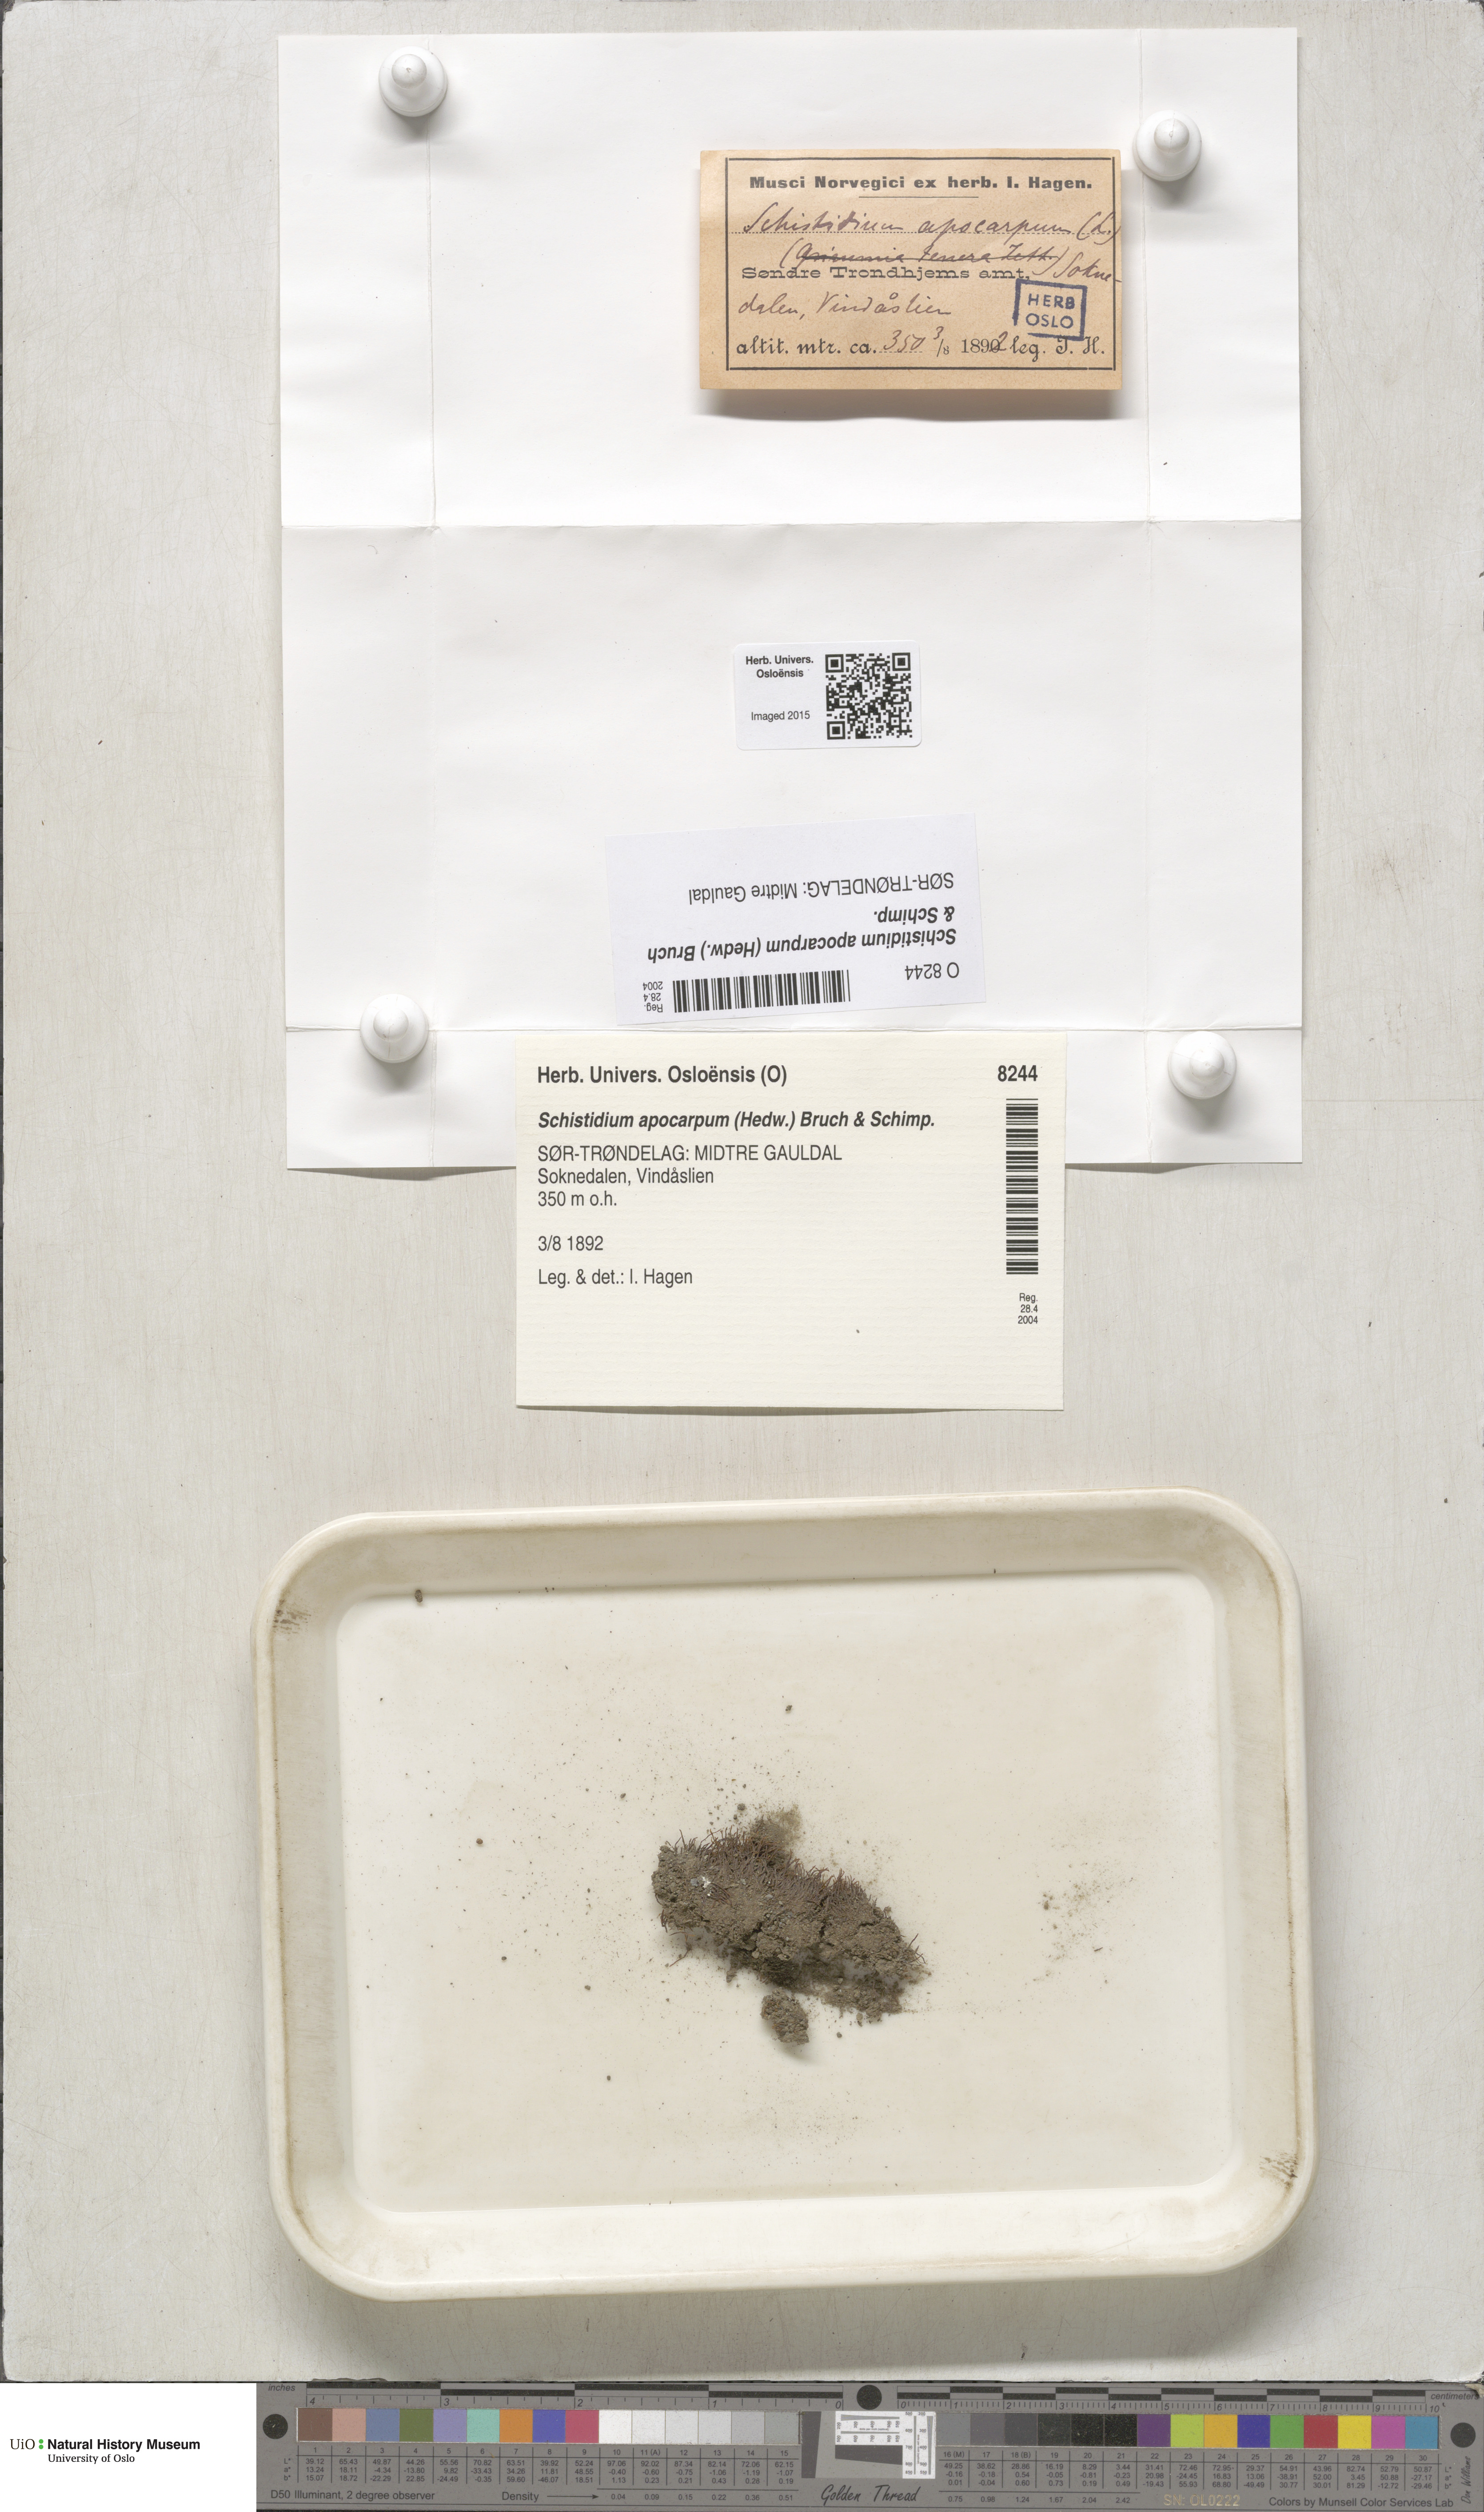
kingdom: Plantae
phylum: Bryophyta
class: Bryopsida
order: Grimmiales
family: Grimmiaceae
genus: Schistidium
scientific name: Schistidium apocarpum
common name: Radiate bloom moss
